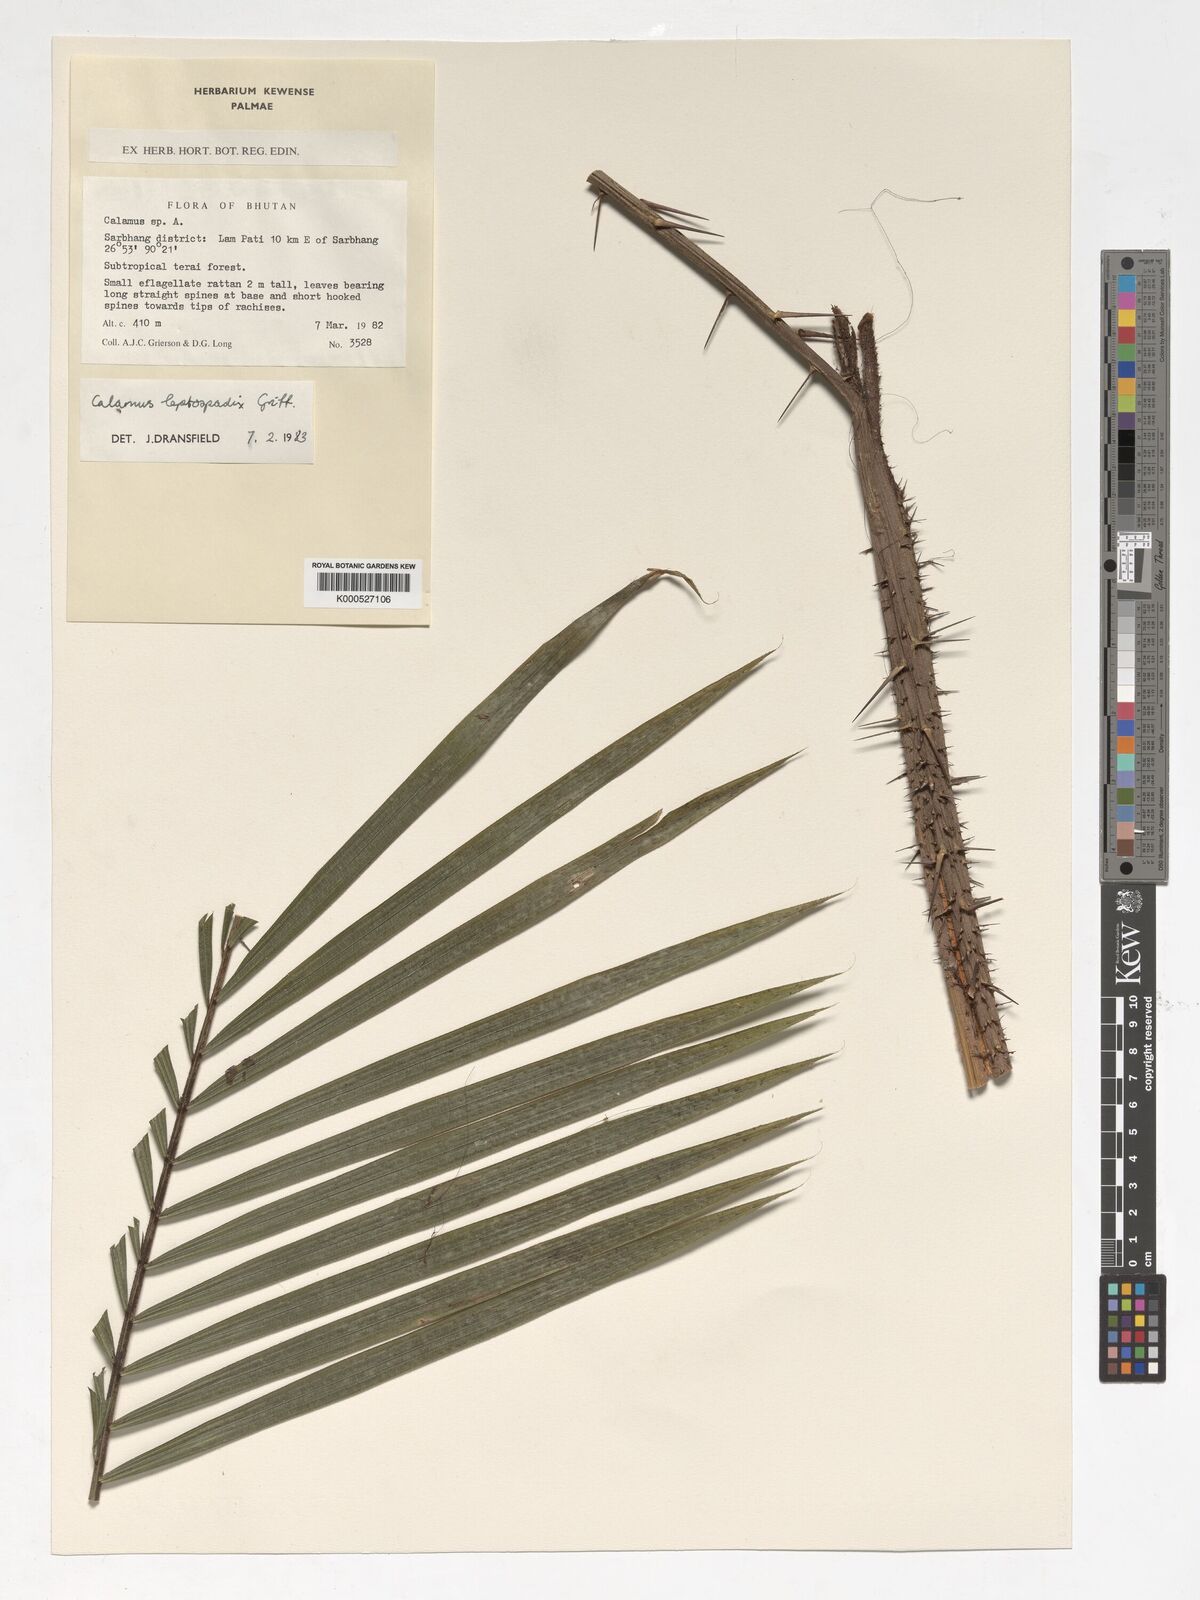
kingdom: Plantae
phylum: Tracheophyta
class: Liliopsida
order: Arecales
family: Arecaceae
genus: Calamus
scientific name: Calamus leptospadix
